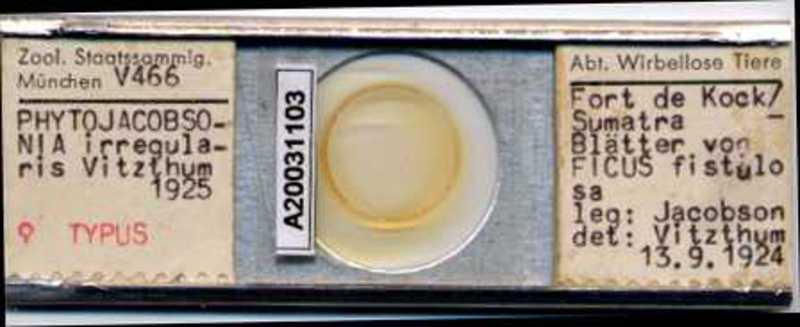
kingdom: Animalia
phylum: Arthropoda
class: Arachnida
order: Mesostigmata
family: Laelapidae
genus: Phytojacobsonia
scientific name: Phytojacobsonia
